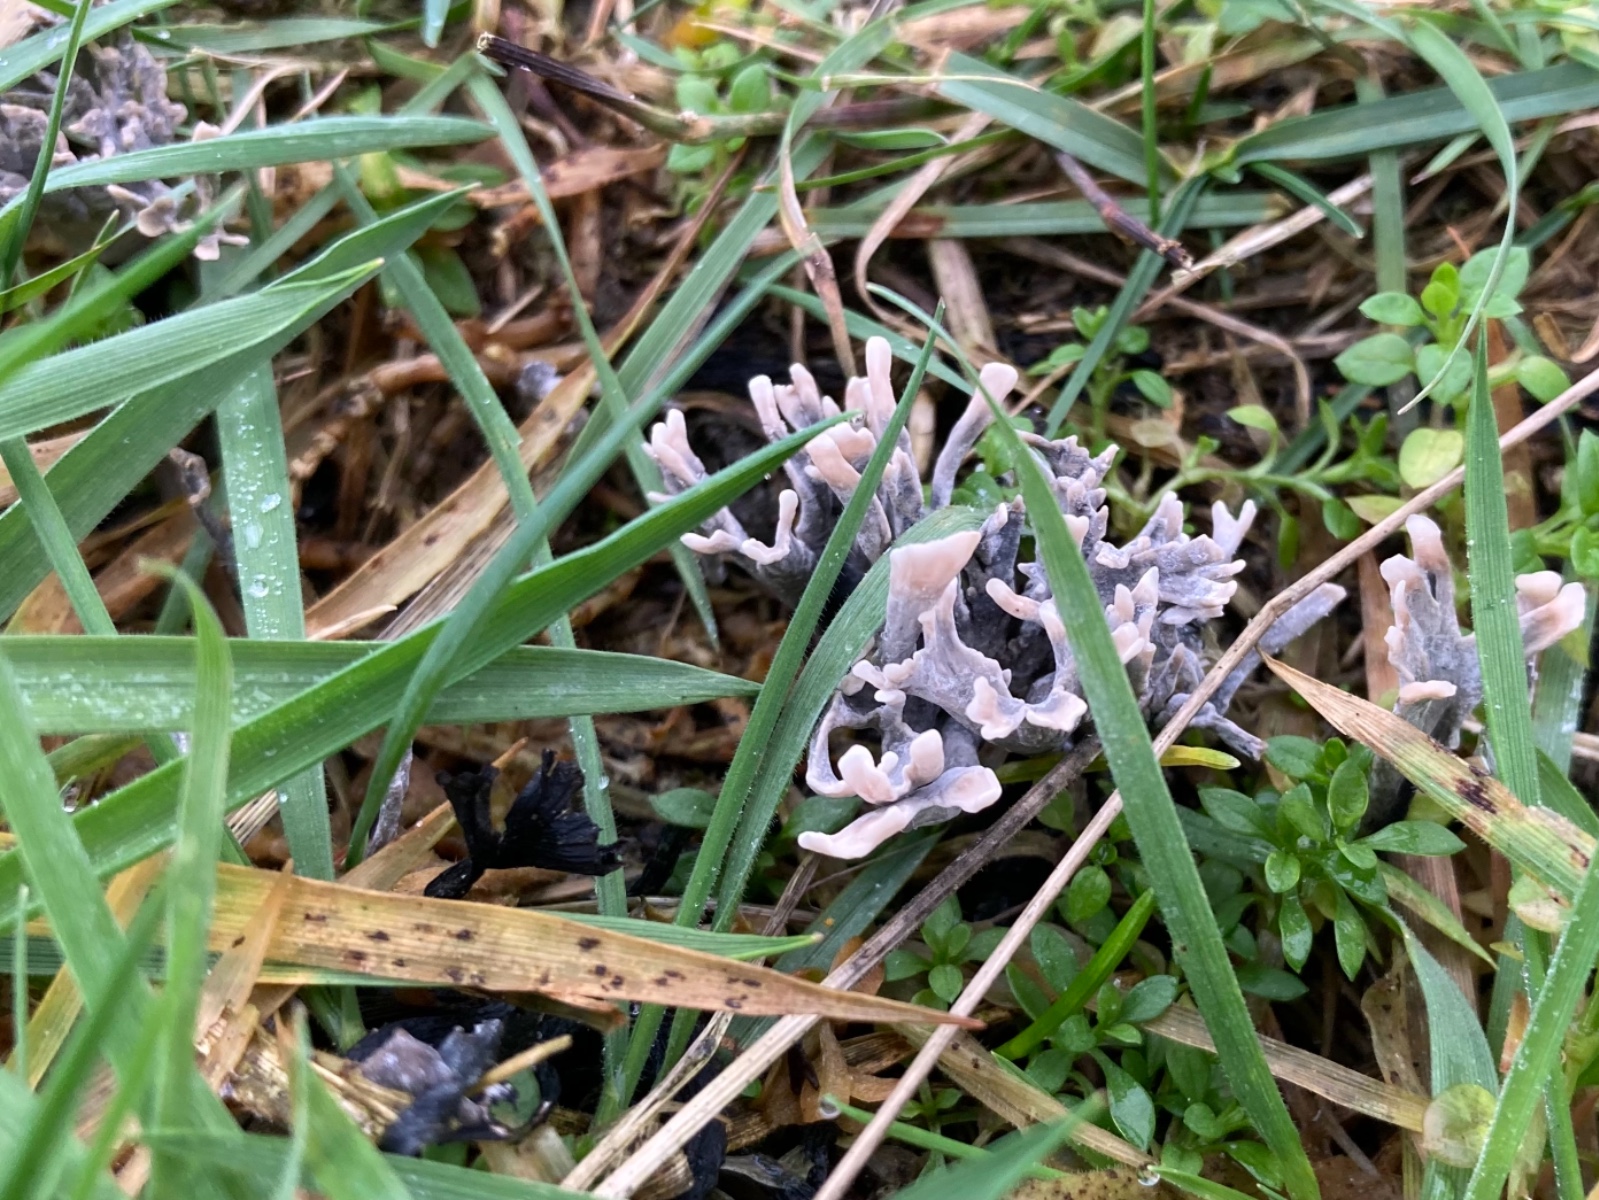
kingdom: Fungi
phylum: Ascomycota
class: Sordariomycetes
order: Xylariales
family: Xylariaceae
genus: Xylaria
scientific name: Xylaria hypoxylon
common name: grenet stødsvamp
